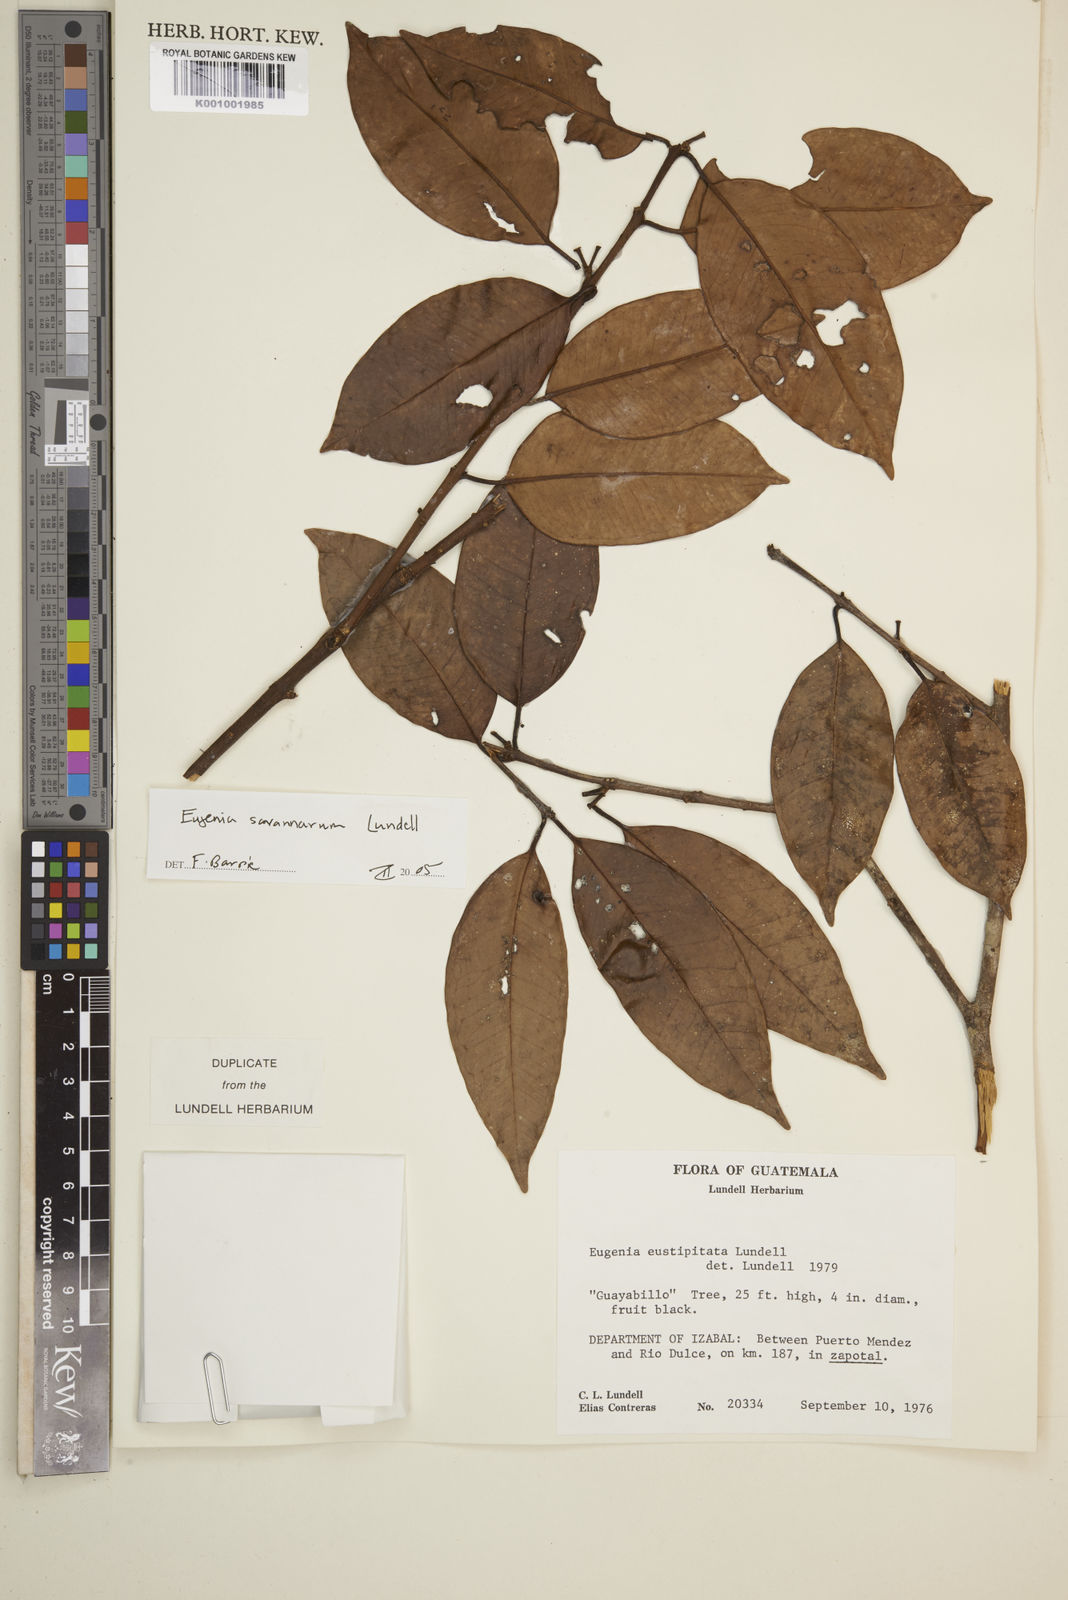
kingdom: Plantae
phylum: Tracheophyta
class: Magnoliopsida
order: Myrtales
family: Myrtaceae
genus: Eugenia
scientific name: Eugenia savannarum
